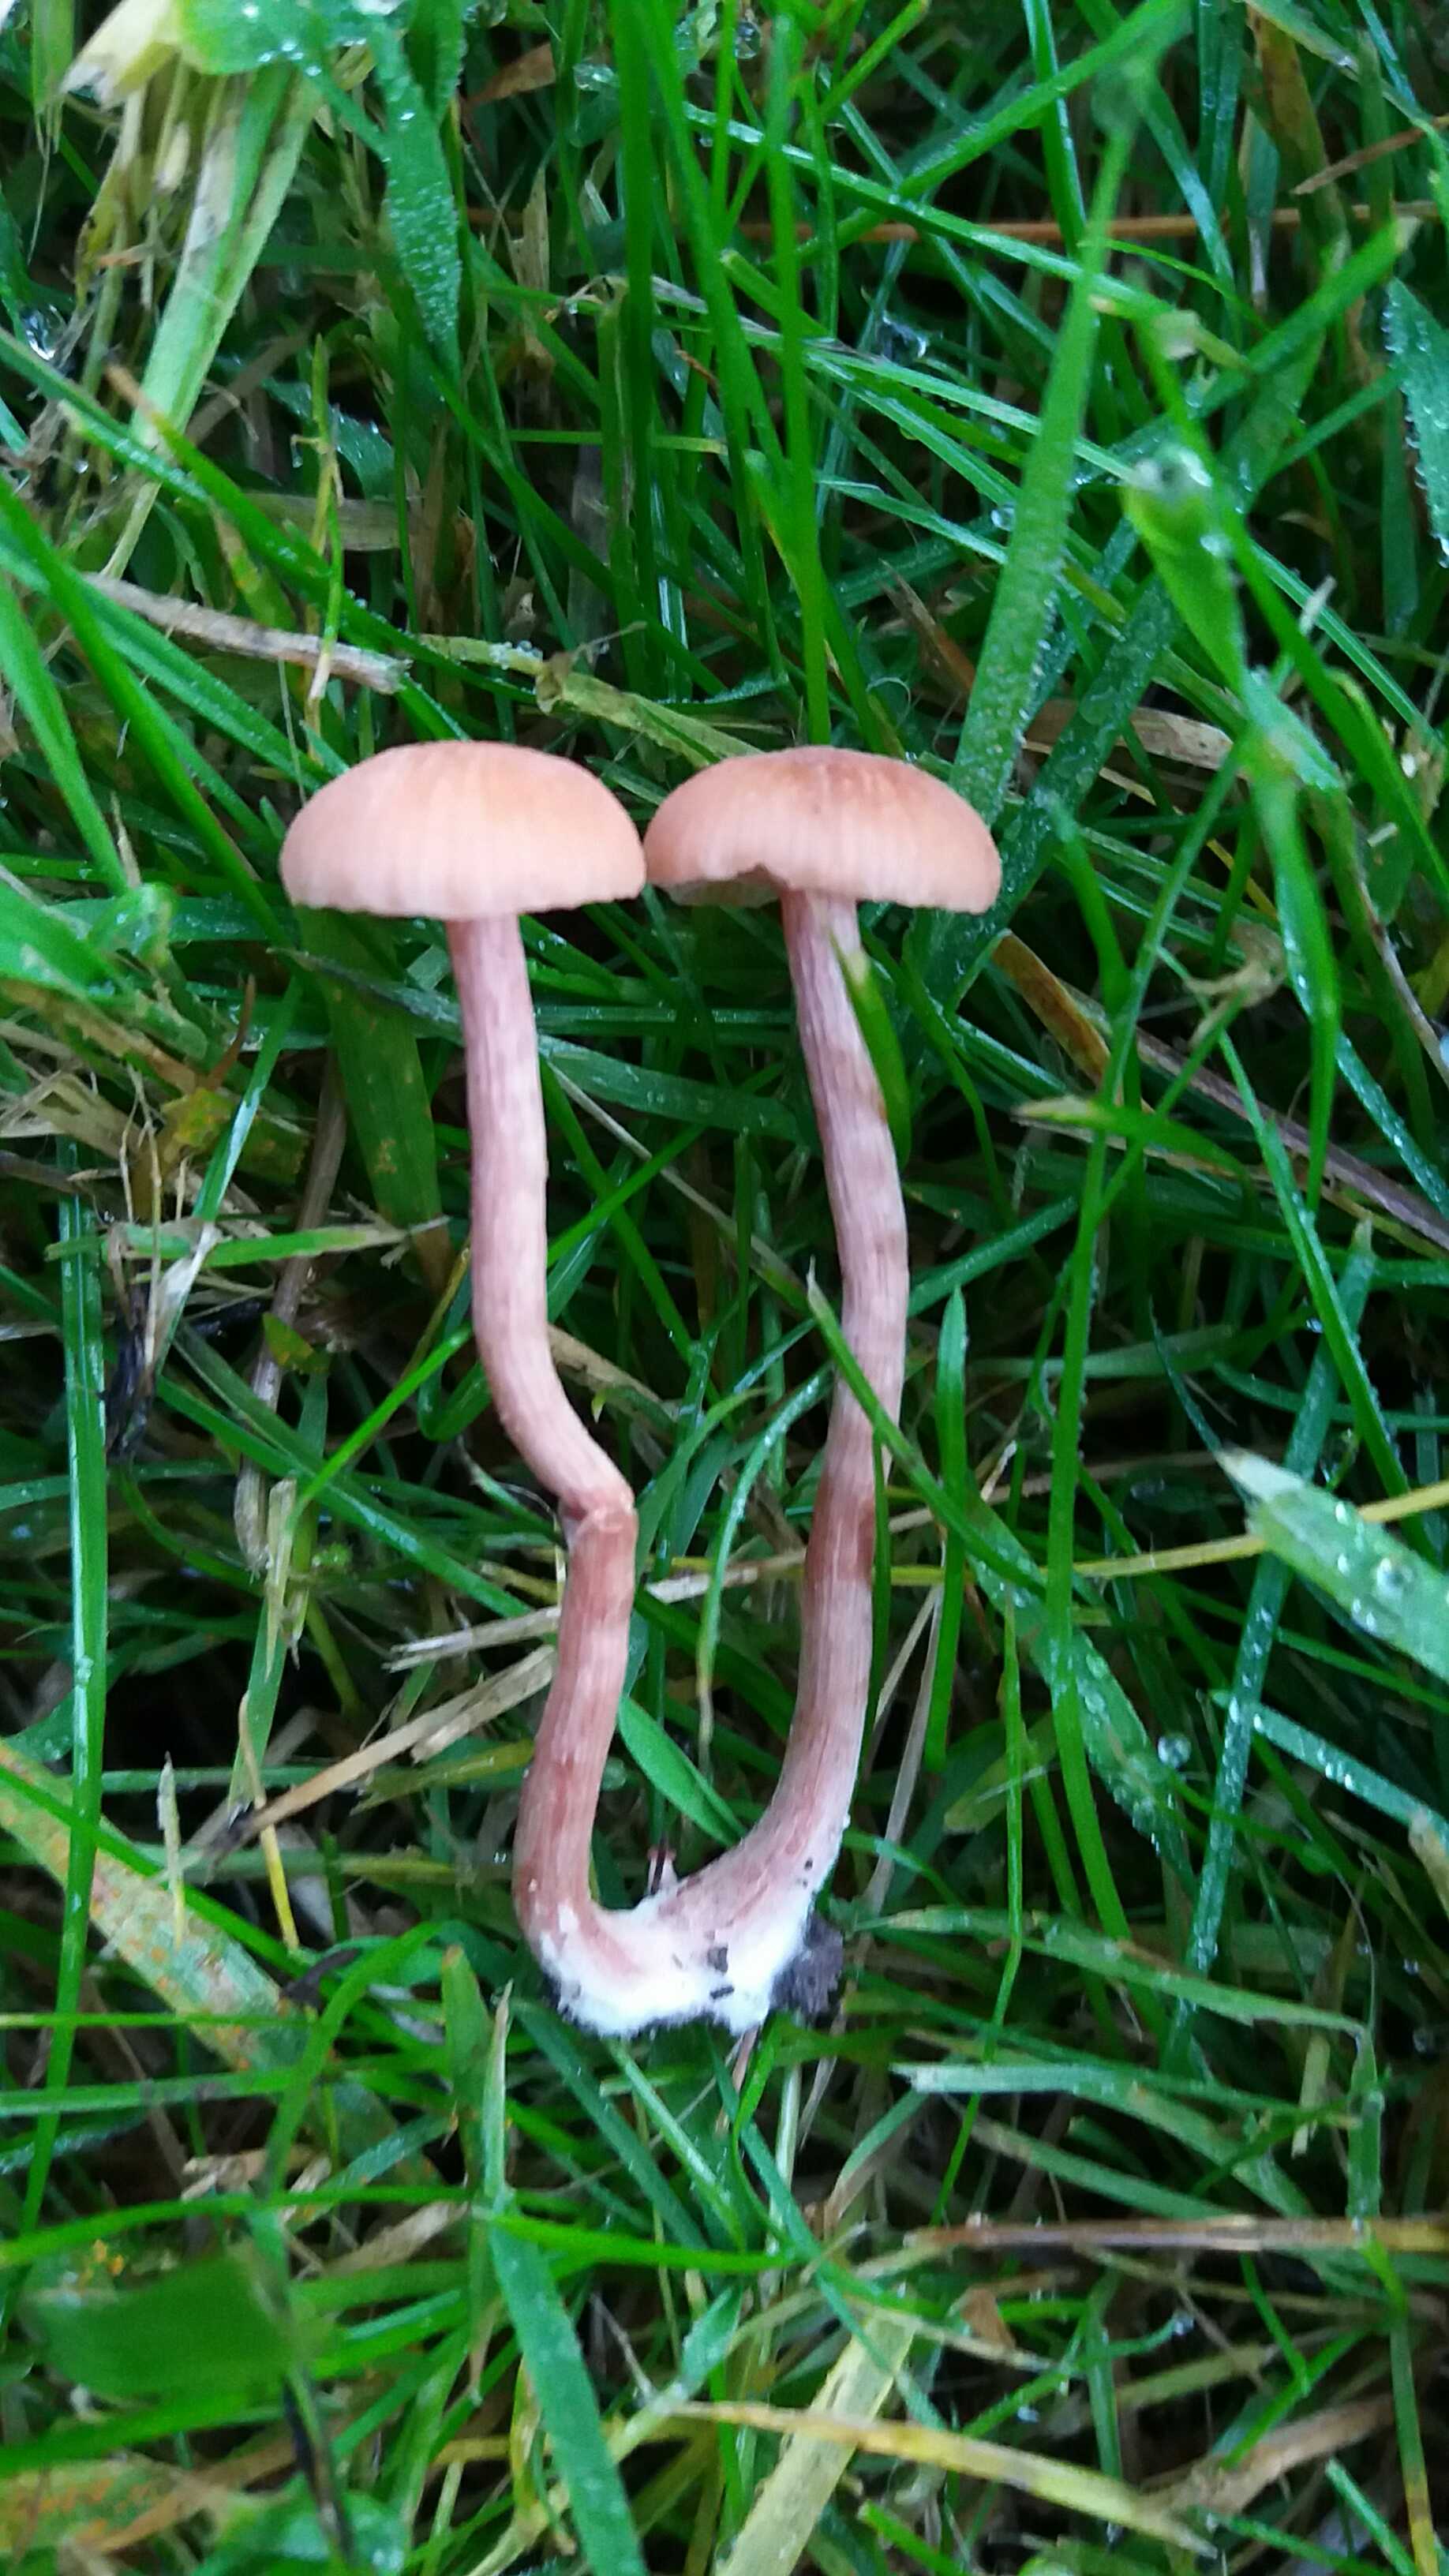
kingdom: Fungi
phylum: Basidiomycota
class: Agaricomycetes
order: Agaricales
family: Hydnangiaceae
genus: Laccaria
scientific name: Laccaria laccata
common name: rød ametysthat
